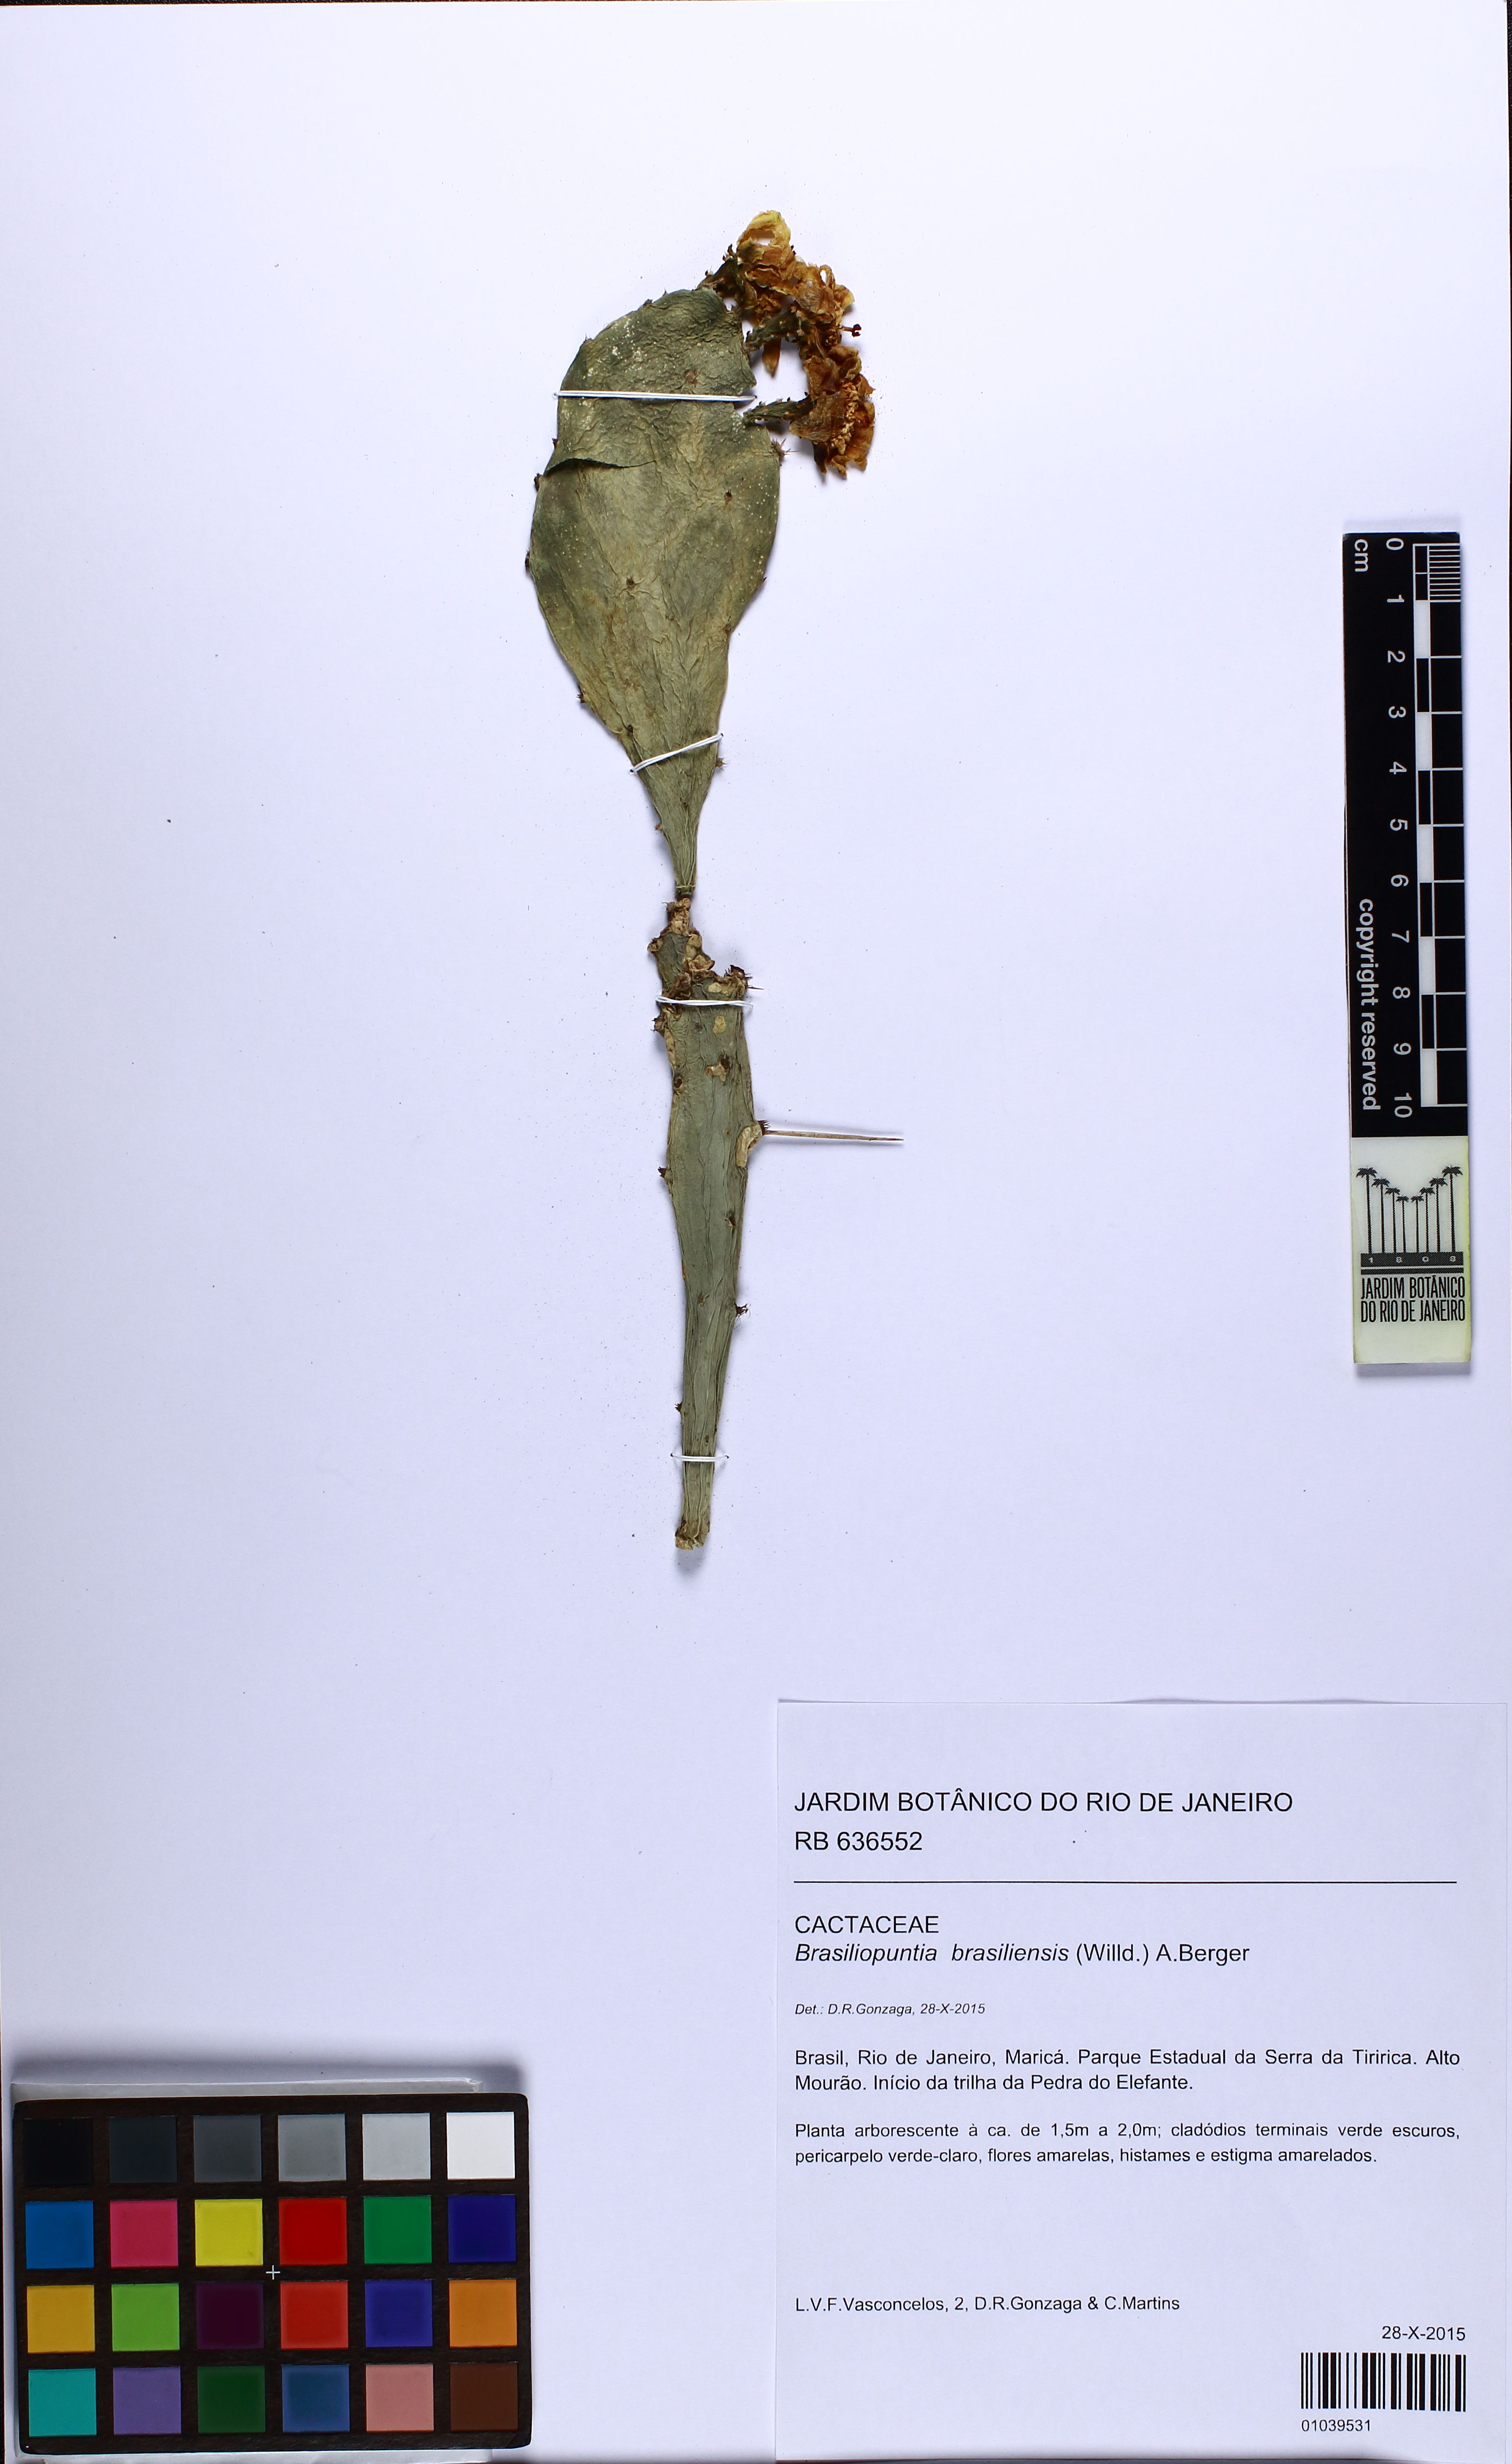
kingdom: Plantae
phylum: Tracheophyta
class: Magnoliopsida
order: Caryophyllales
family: Cactaceae
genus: Brasiliopuntia
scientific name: Brasiliopuntia brasiliensis
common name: Brazilian pricklypear
